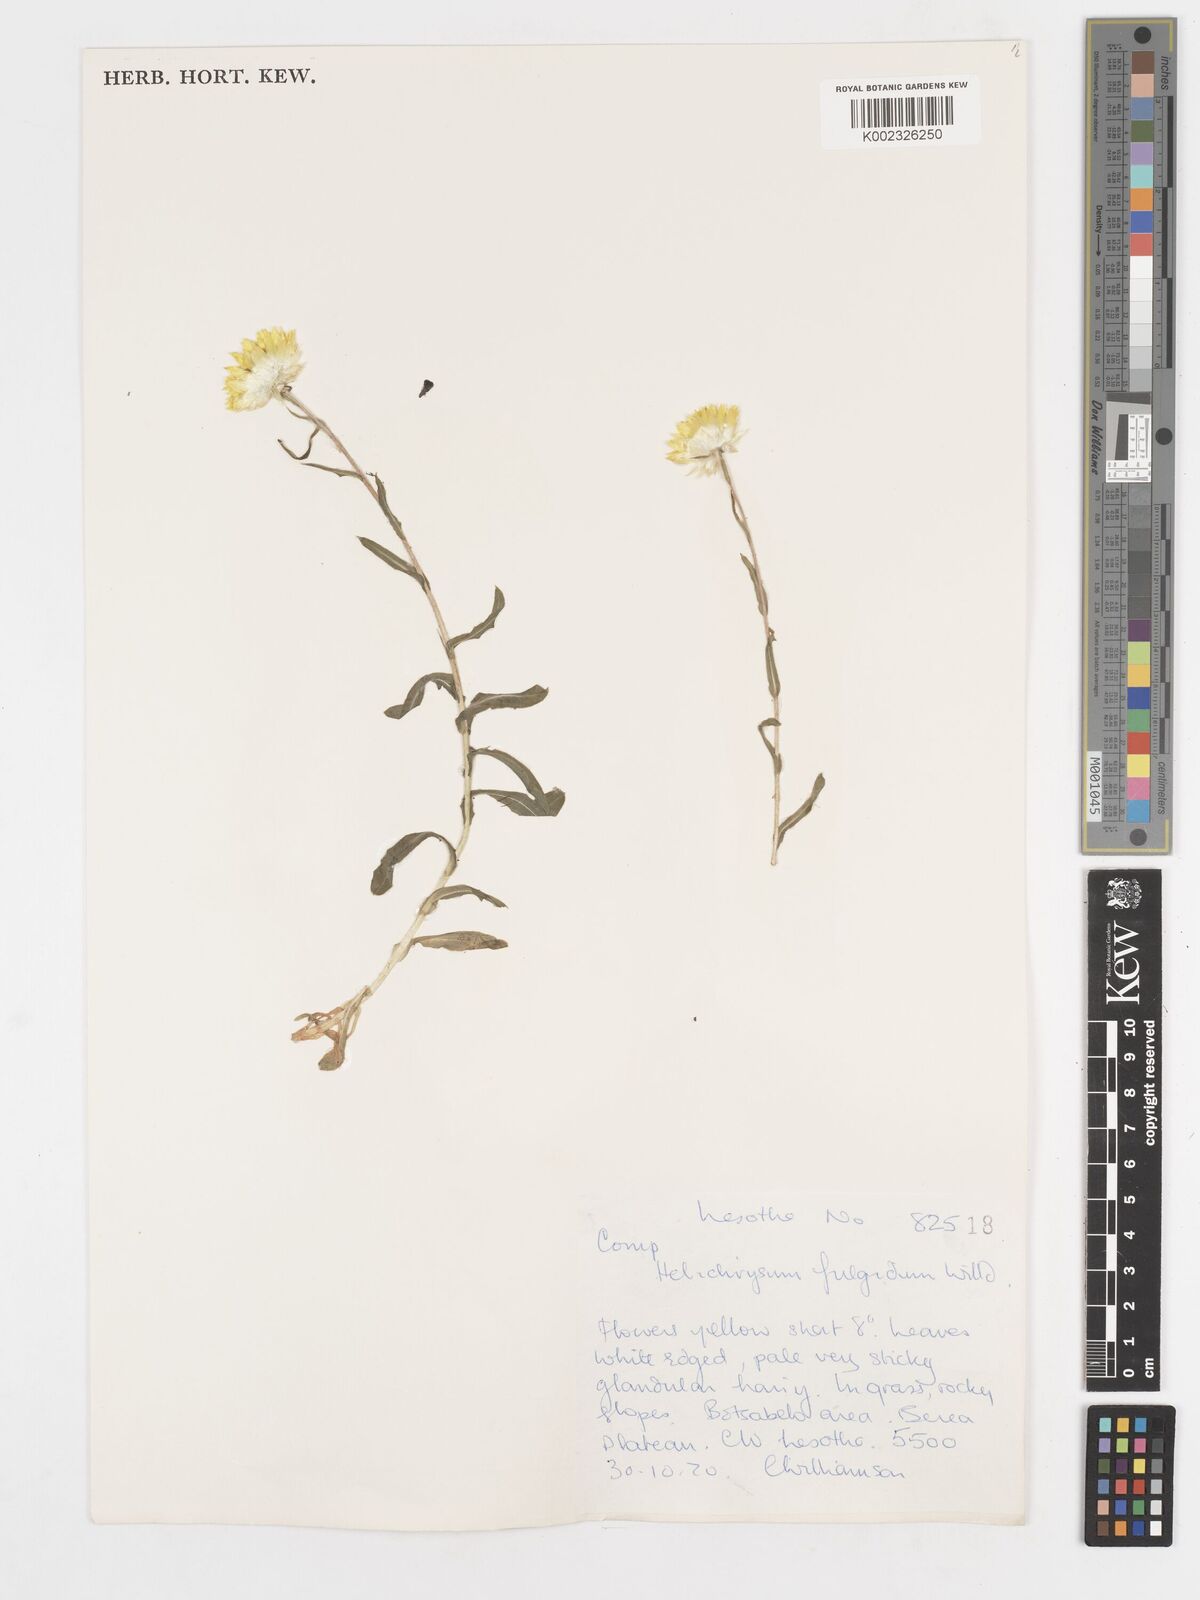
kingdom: Plantae
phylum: Tracheophyta
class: Magnoliopsida
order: Asterales
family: Asteraceae
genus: Helichrysum
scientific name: Helichrysum aureum
